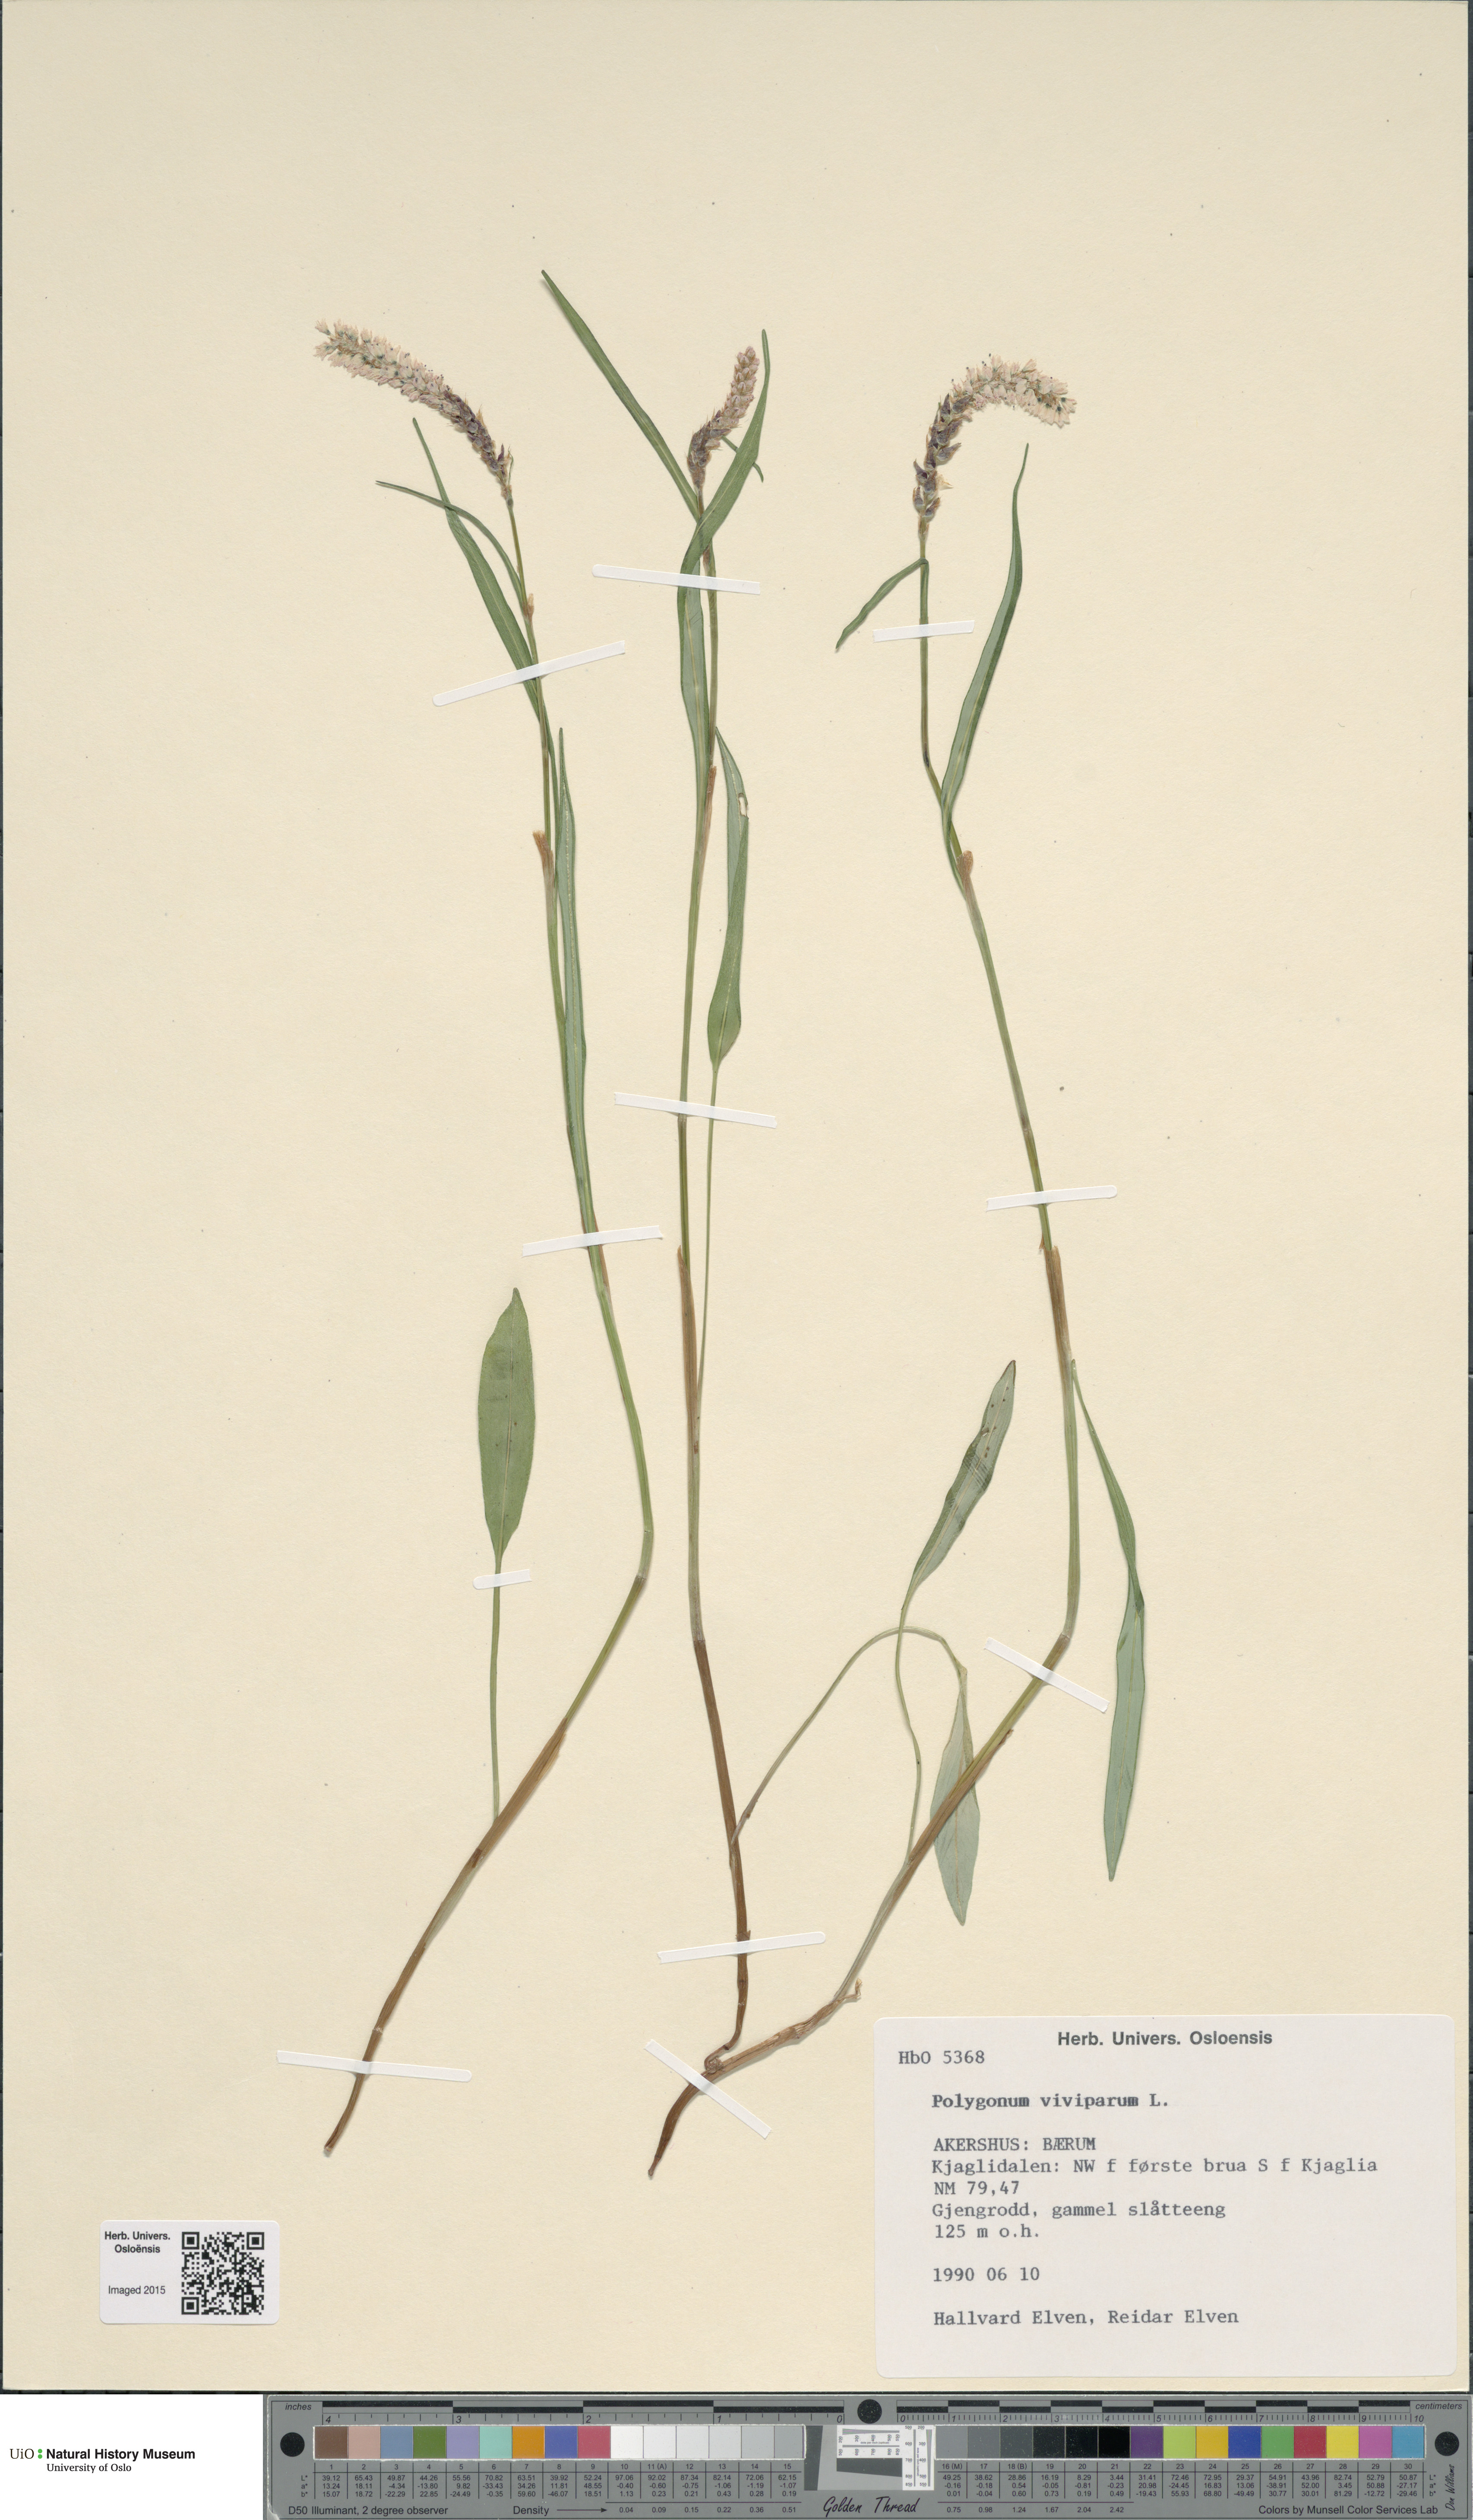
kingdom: Plantae
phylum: Tracheophyta
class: Magnoliopsida
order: Caryophyllales
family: Polygonaceae
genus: Bistorta
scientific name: Bistorta vivipara
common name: Alpine bistort
